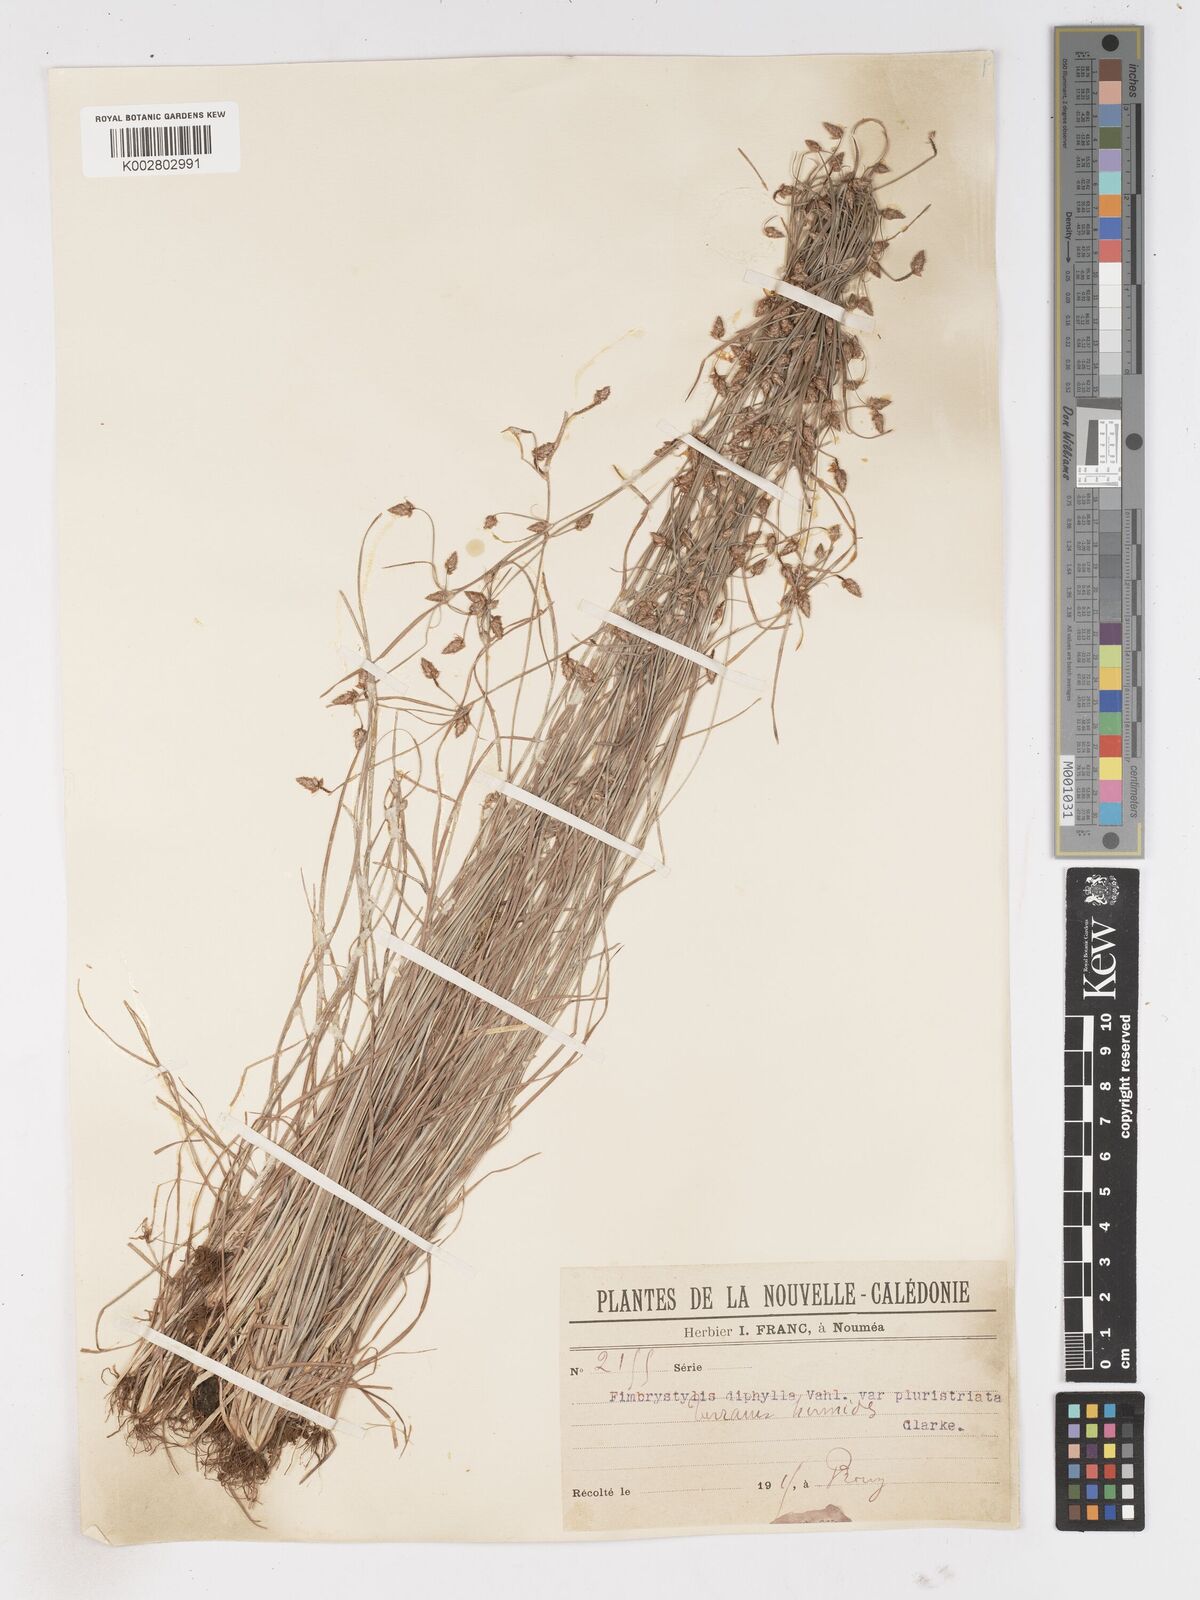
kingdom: Plantae
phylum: Tracheophyta
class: Liliopsida
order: Poales
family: Cyperaceae
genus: Fimbristylis
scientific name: Fimbristylis dichotoma
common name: Forked fimbry
